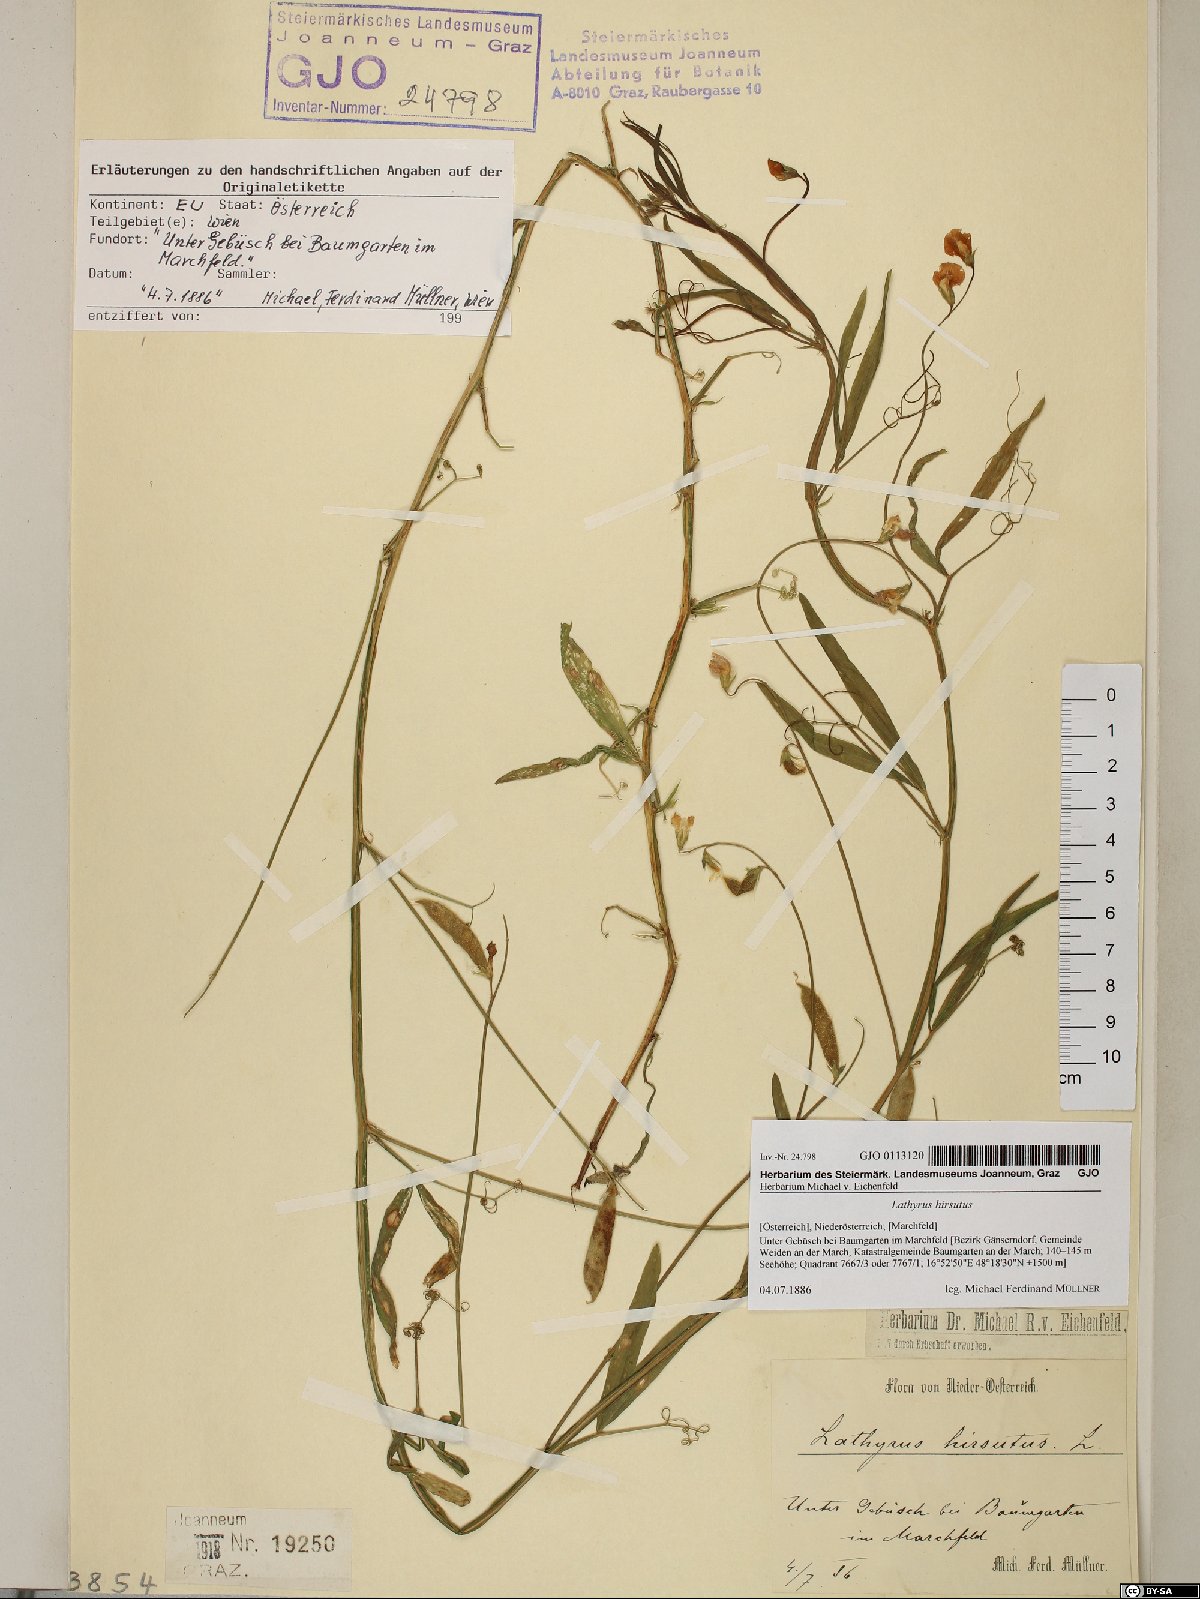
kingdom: Plantae
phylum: Tracheophyta
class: Magnoliopsida
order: Fabales
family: Fabaceae
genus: Lathyrus
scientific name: Lathyrus hirsutus
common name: Hairy vetchling
